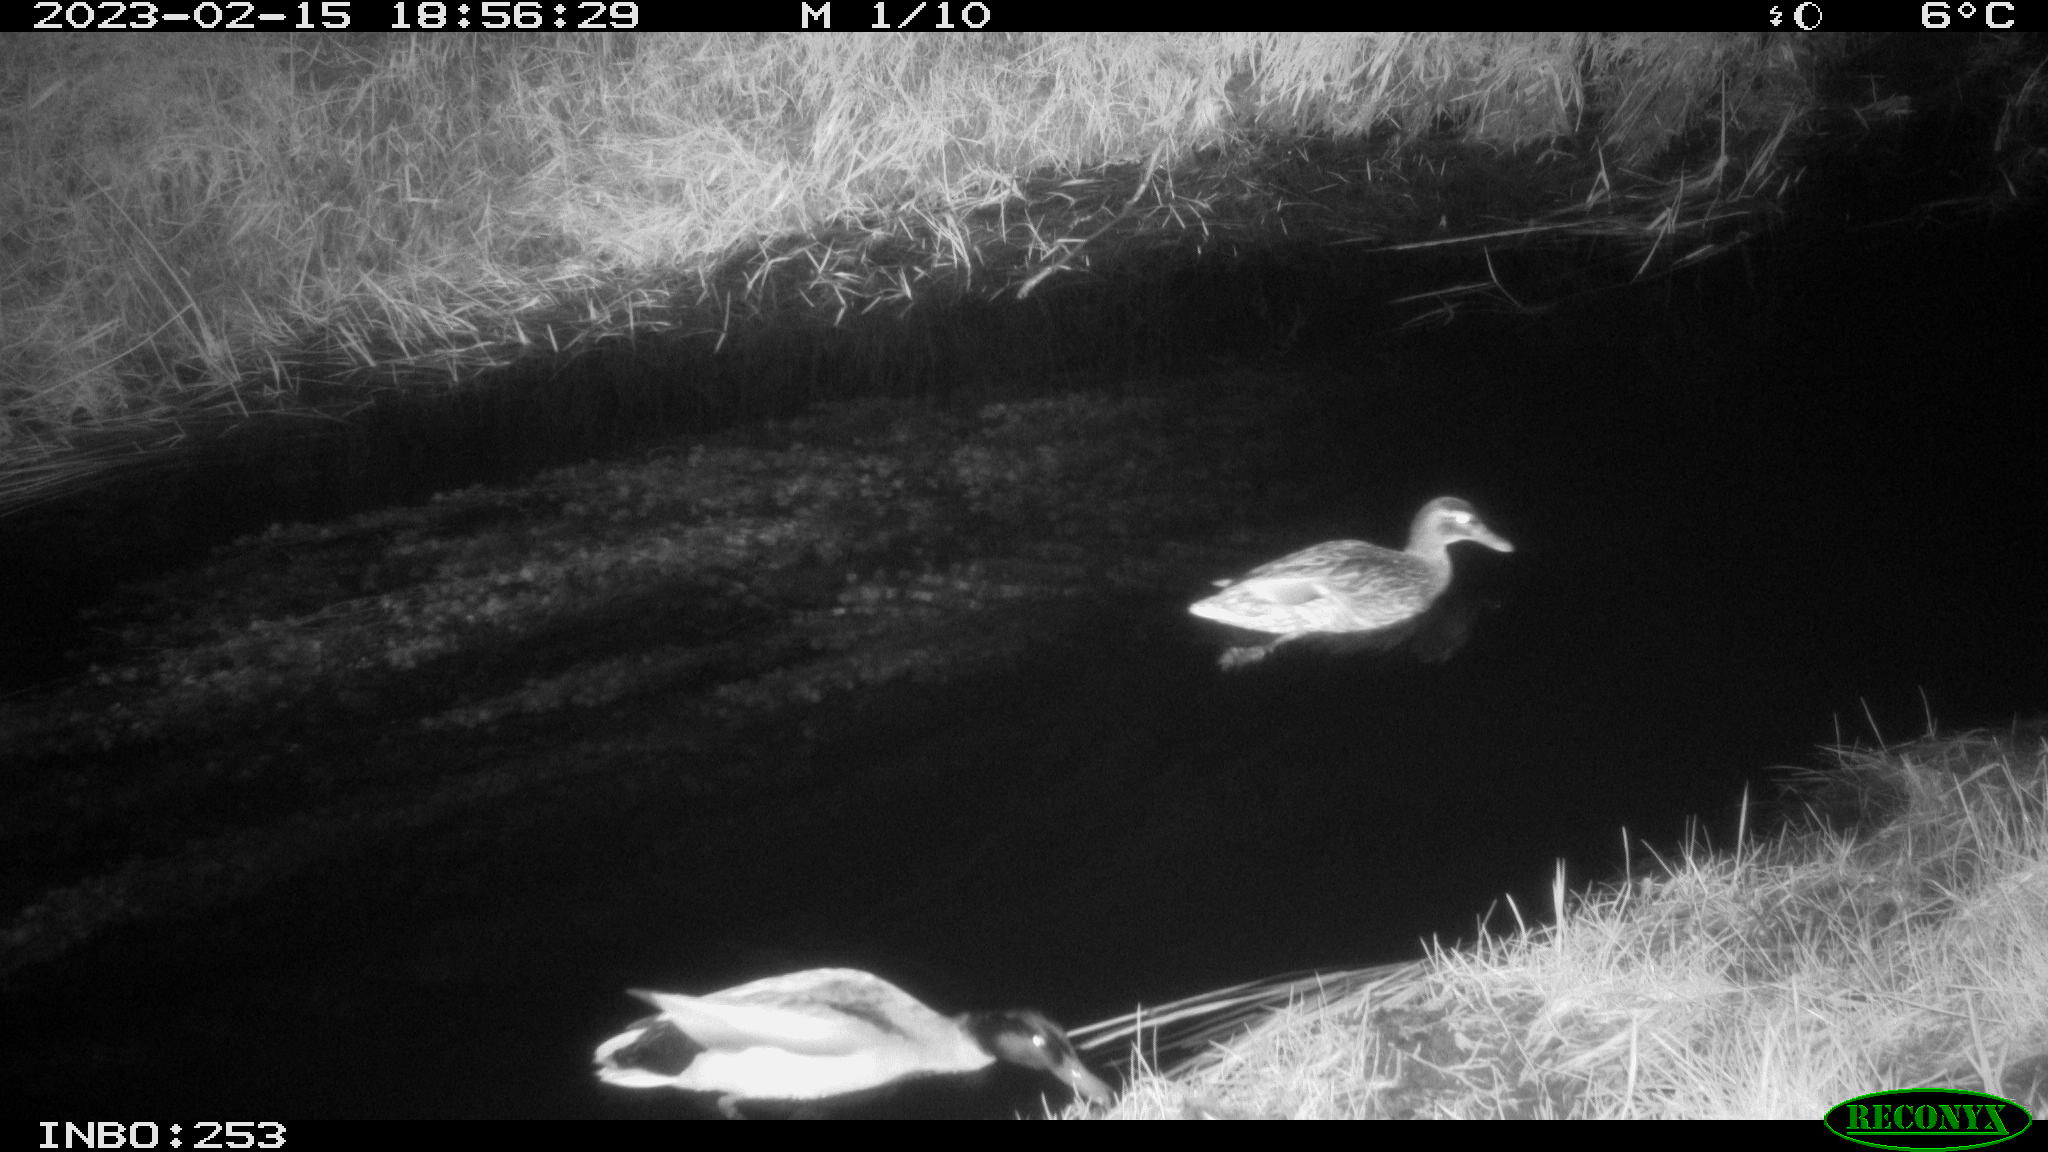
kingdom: Animalia
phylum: Chordata
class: Aves
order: Anseriformes
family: Anatidae
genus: Anas
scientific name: Anas
